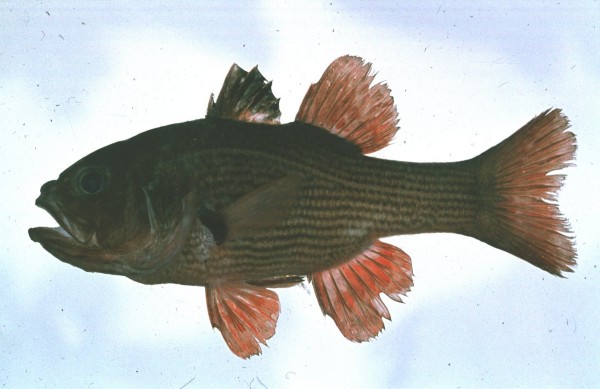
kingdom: Animalia
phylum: Chordata
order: Perciformes
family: Apogonidae
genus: Lepidamia
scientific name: Lepidamia natalensis
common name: Smallscale cardinal
